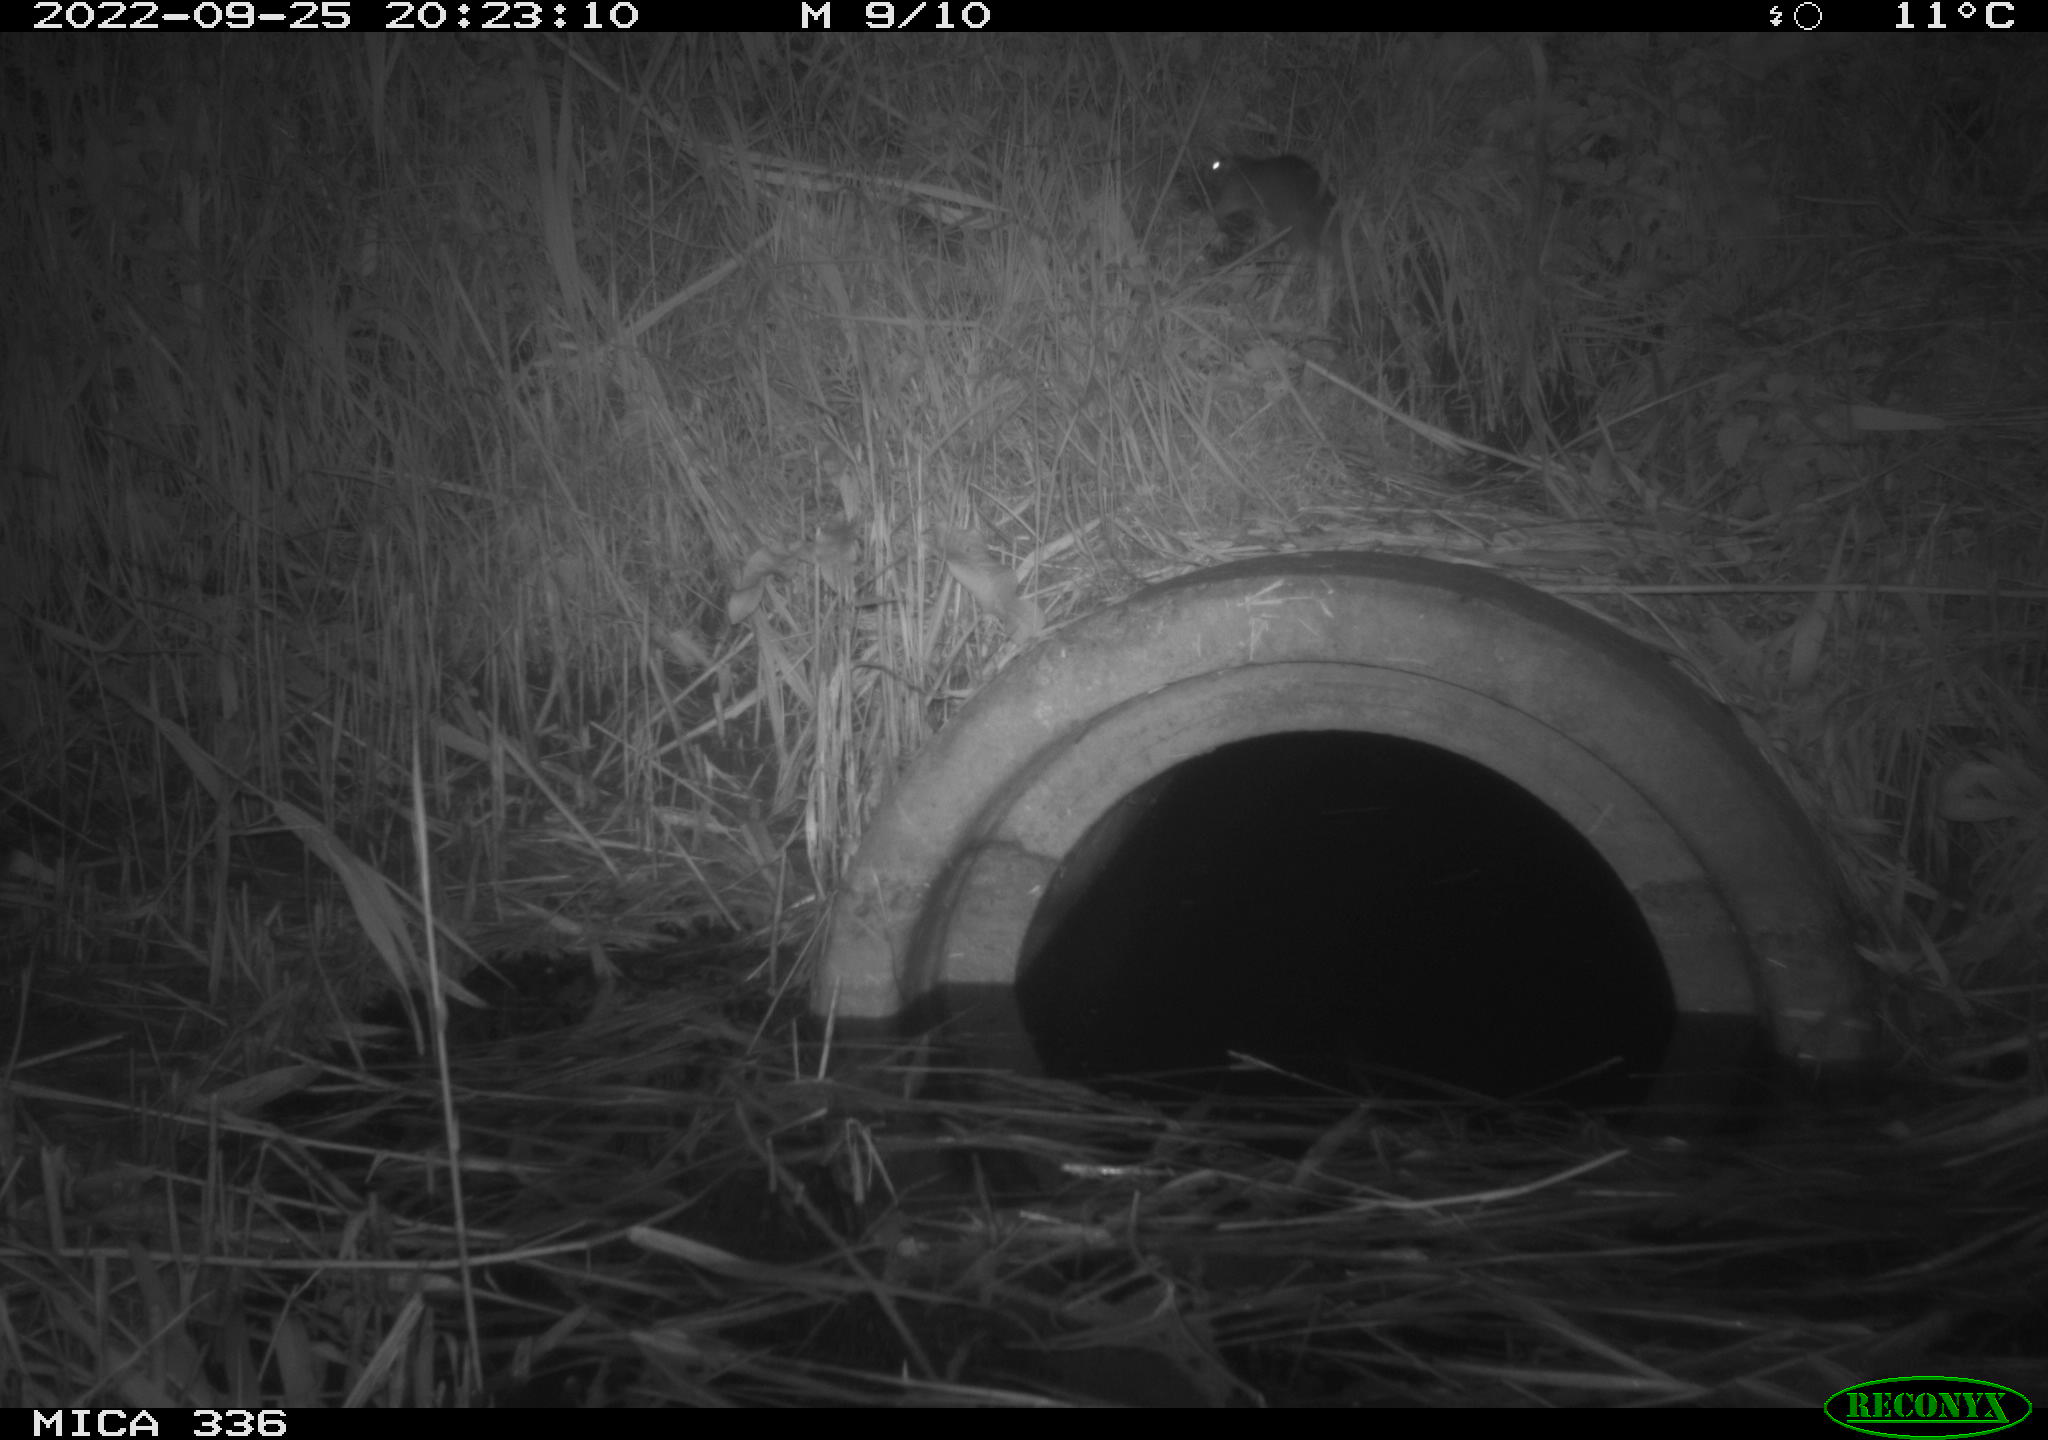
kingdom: Animalia
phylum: Chordata
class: Mammalia
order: Rodentia
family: Muridae
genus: Rattus
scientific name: Rattus norvegicus
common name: Brown rat
